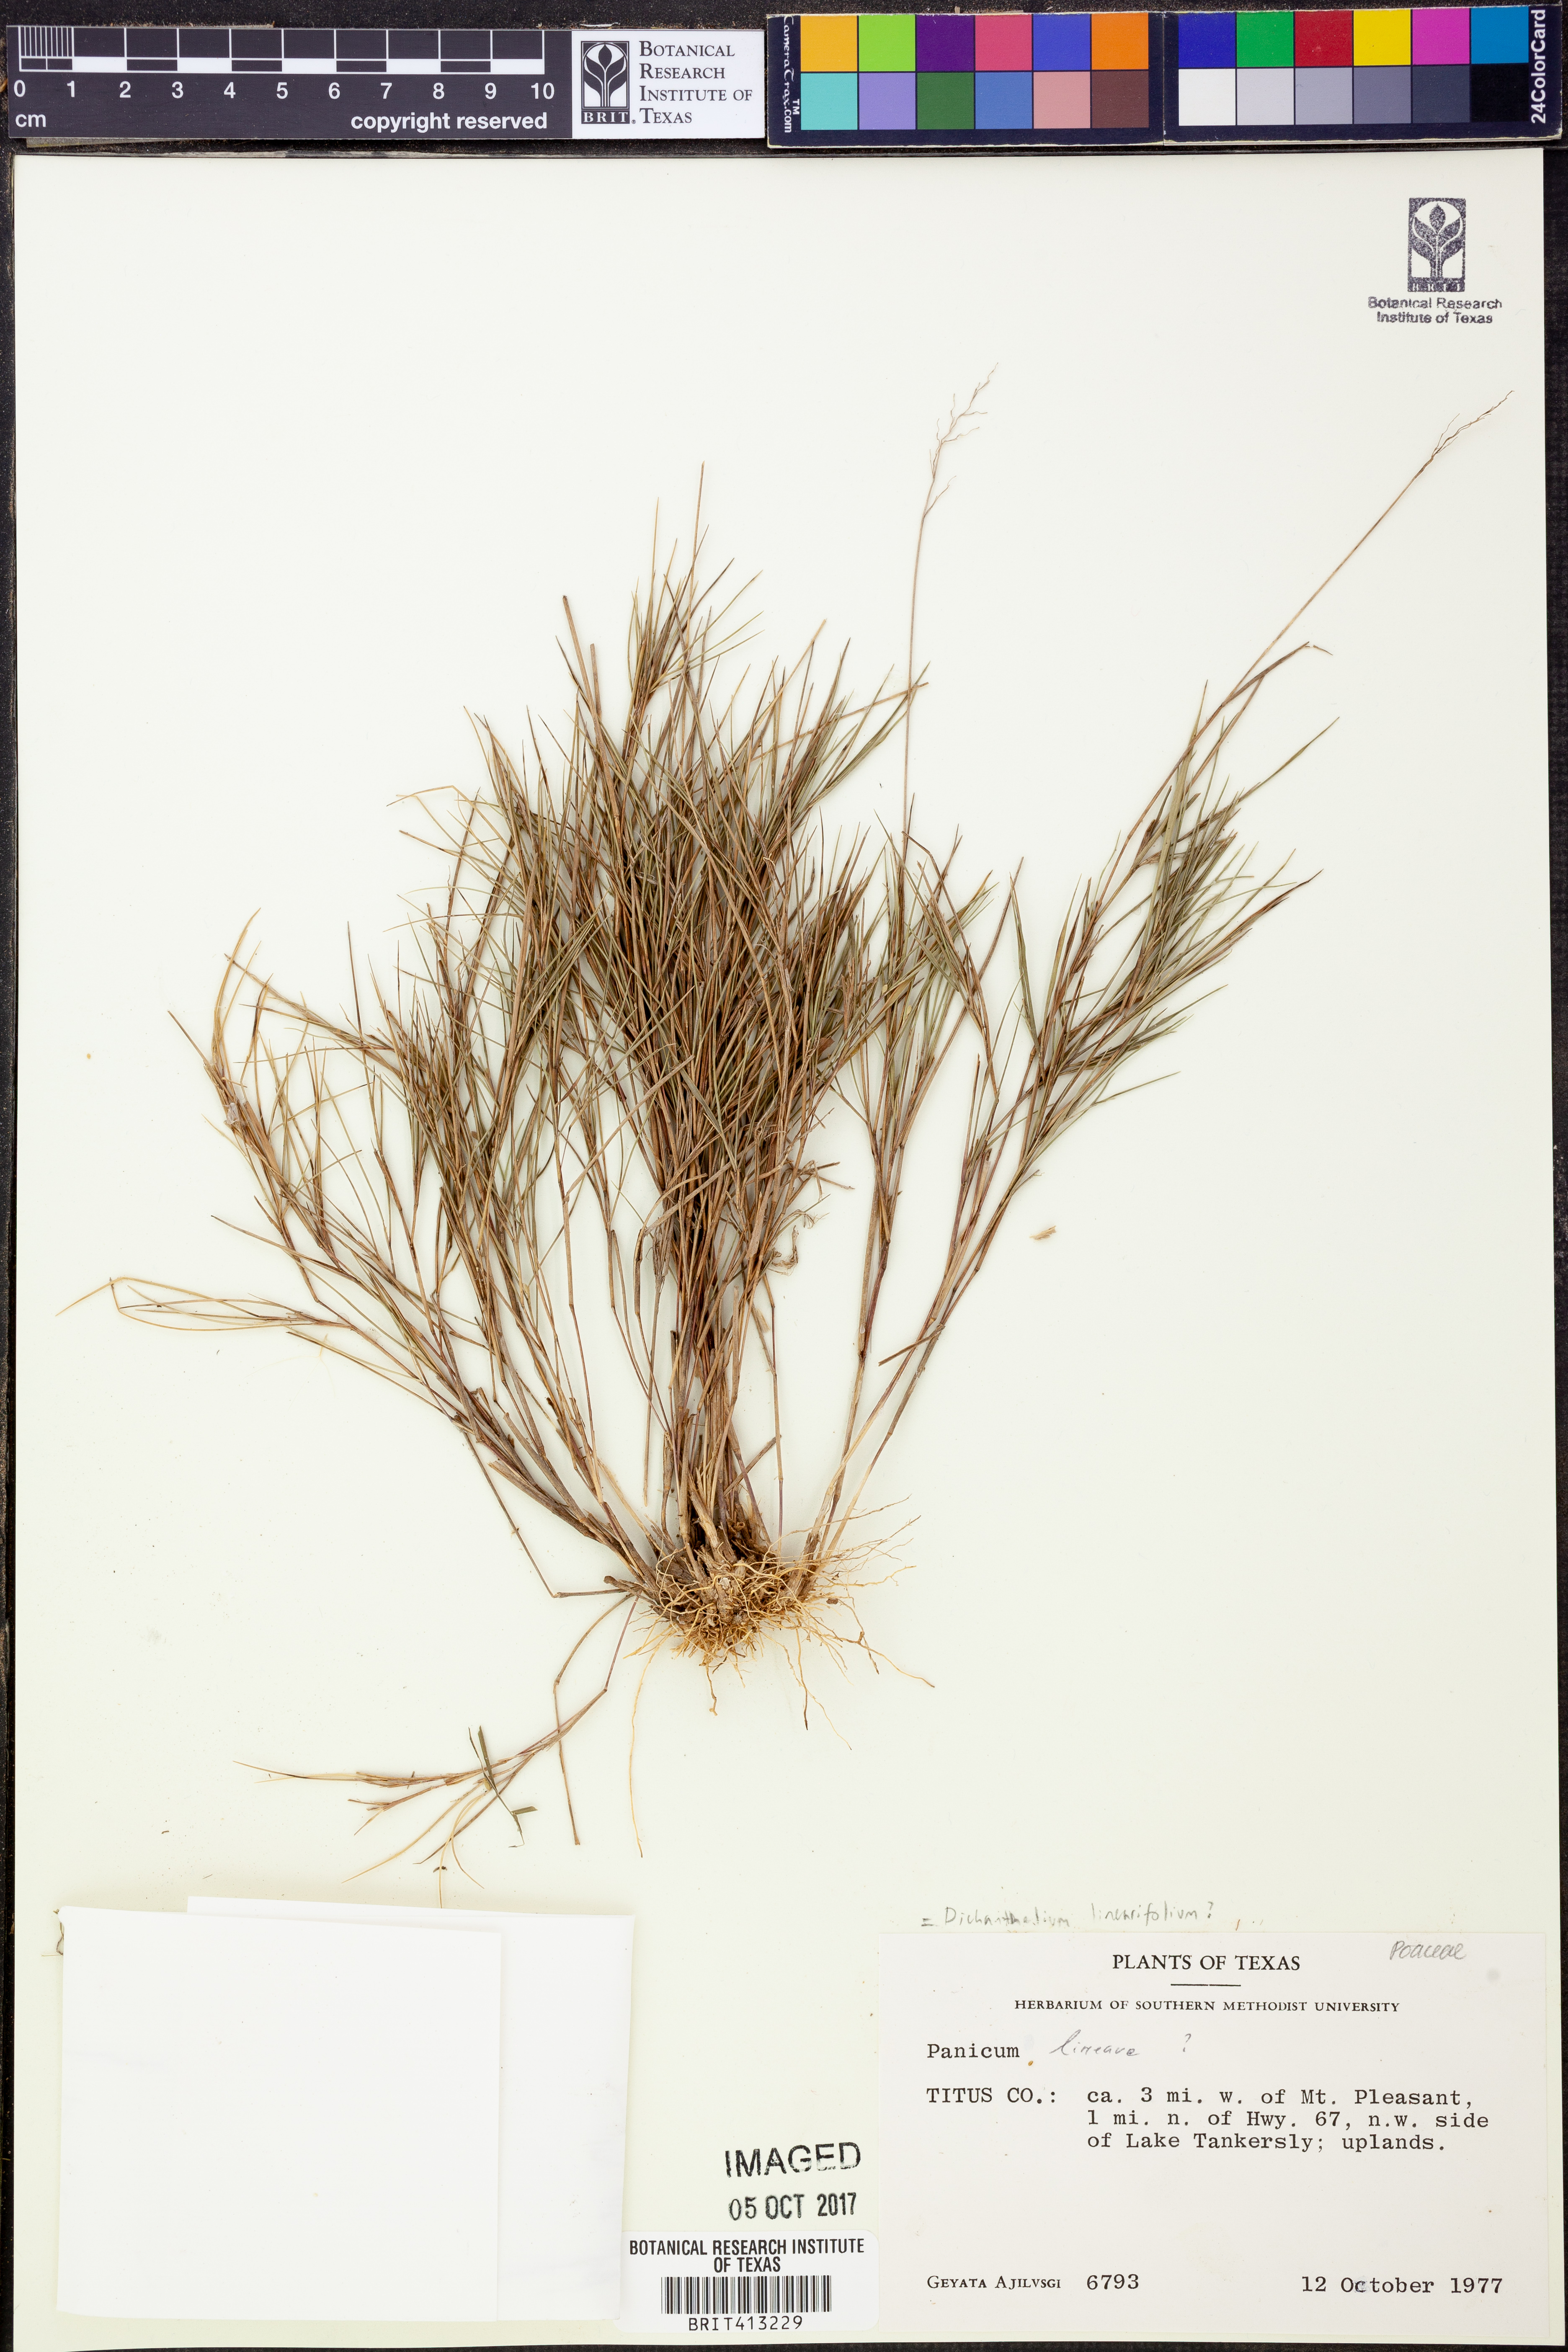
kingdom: Plantae
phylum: Tracheophyta
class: Liliopsida
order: Poales
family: Poaceae
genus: Panicum
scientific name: Panicum lineare
